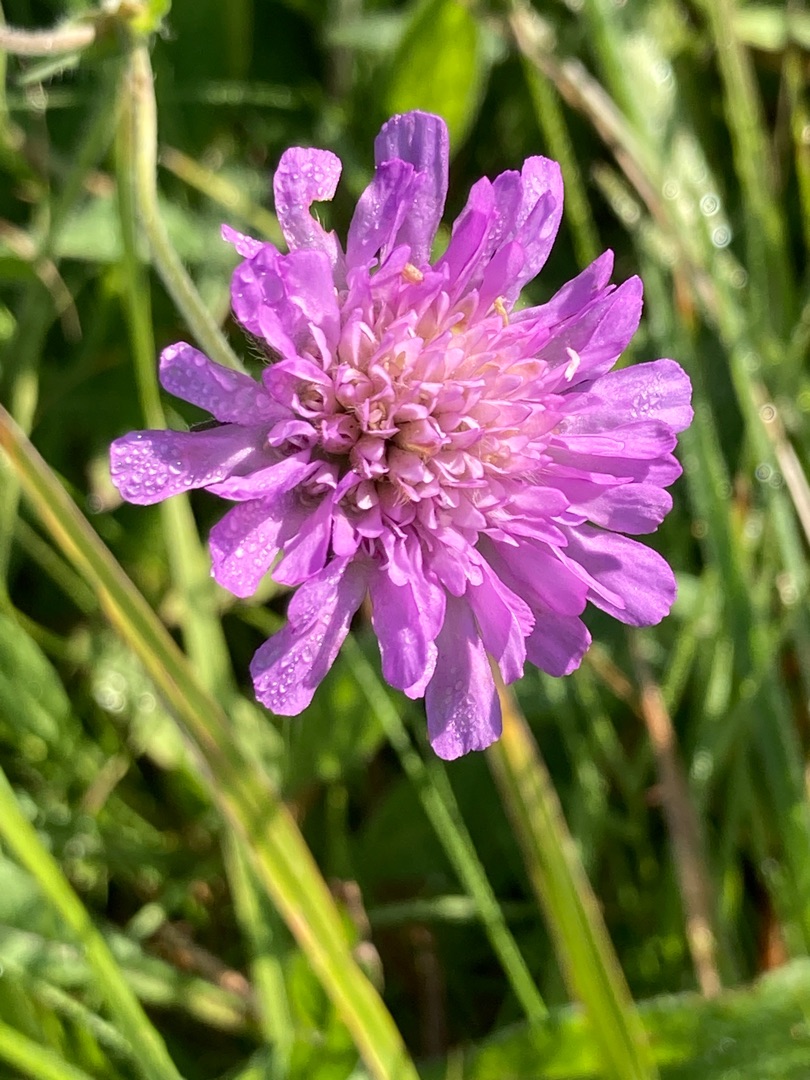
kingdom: Plantae
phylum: Tracheophyta
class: Magnoliopsida
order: Dipsacales
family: Caprifoliaceae
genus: Knautia
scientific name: Knautia arvensis
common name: Blåhat
